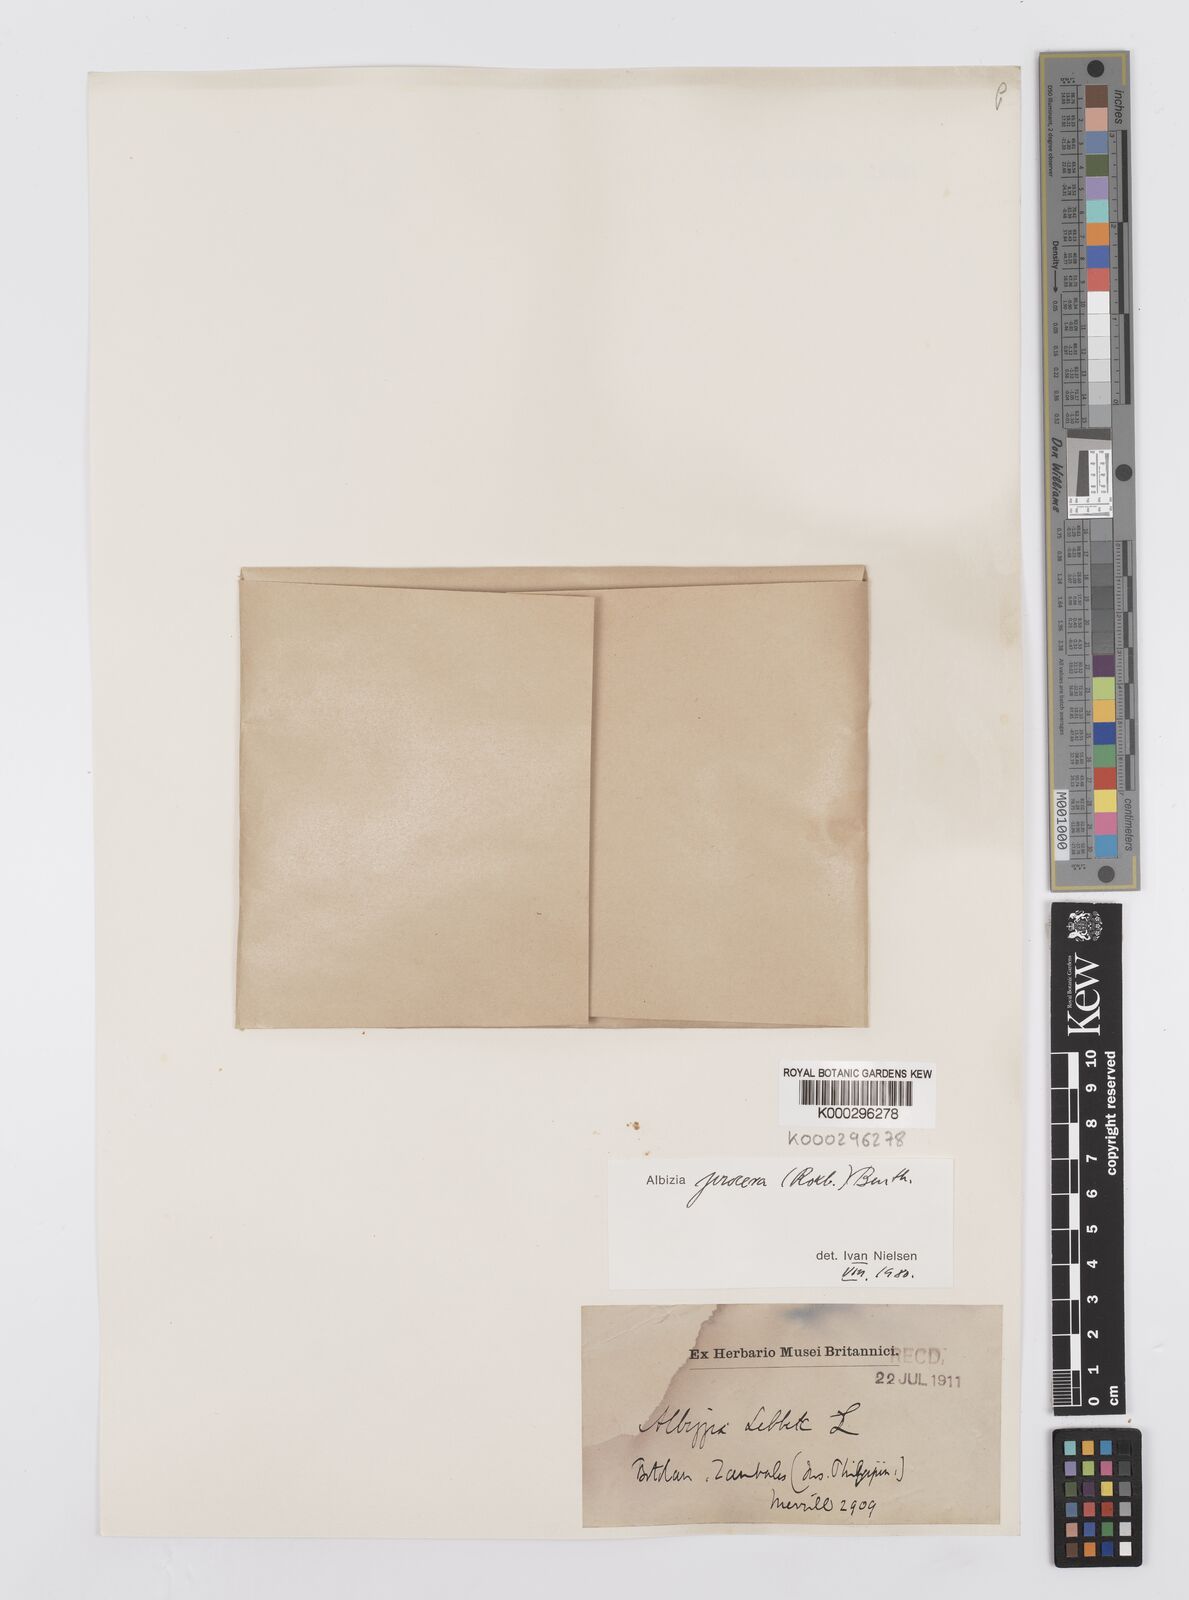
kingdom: Plantae
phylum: Tracheophyta
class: Magnoliopsida
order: Fabales
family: Fabaceae
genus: Albizia
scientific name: Albizia procera
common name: Tall albizia
